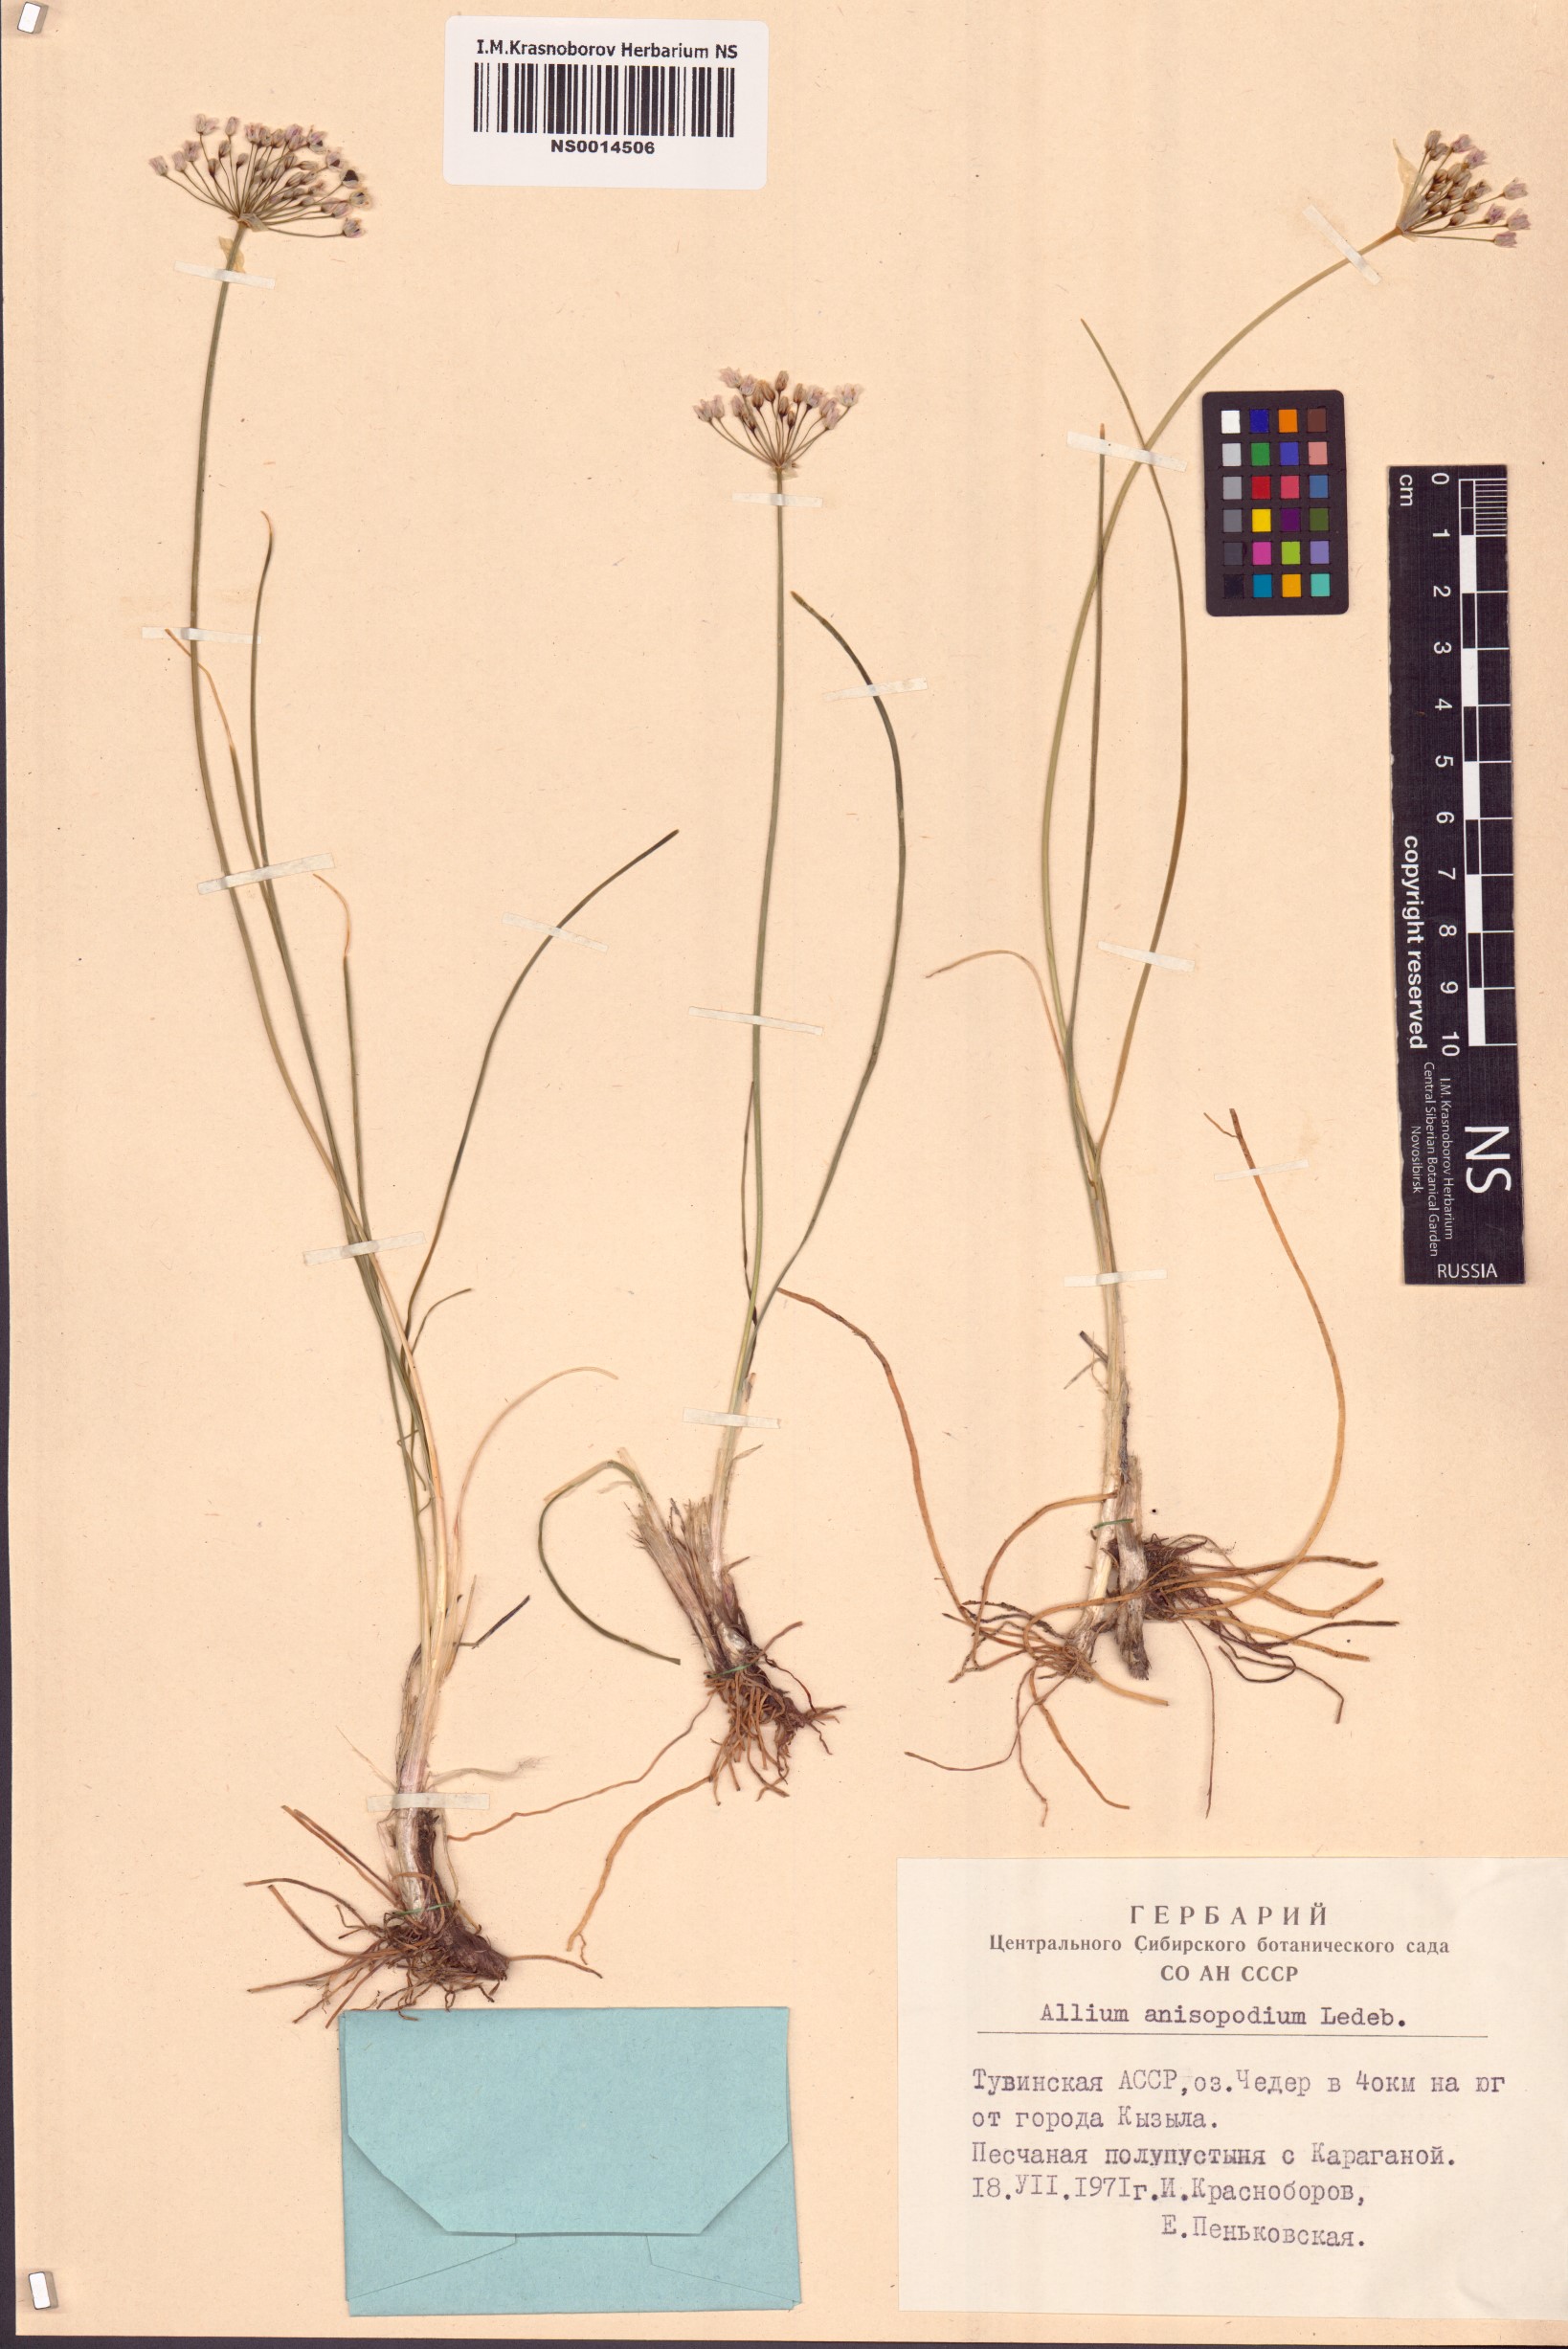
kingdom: Plantae
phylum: Tracheophyta
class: Liliopsida
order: Asparagales
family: Amaryllidaceae
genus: Allium
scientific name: Allium anisopodium
